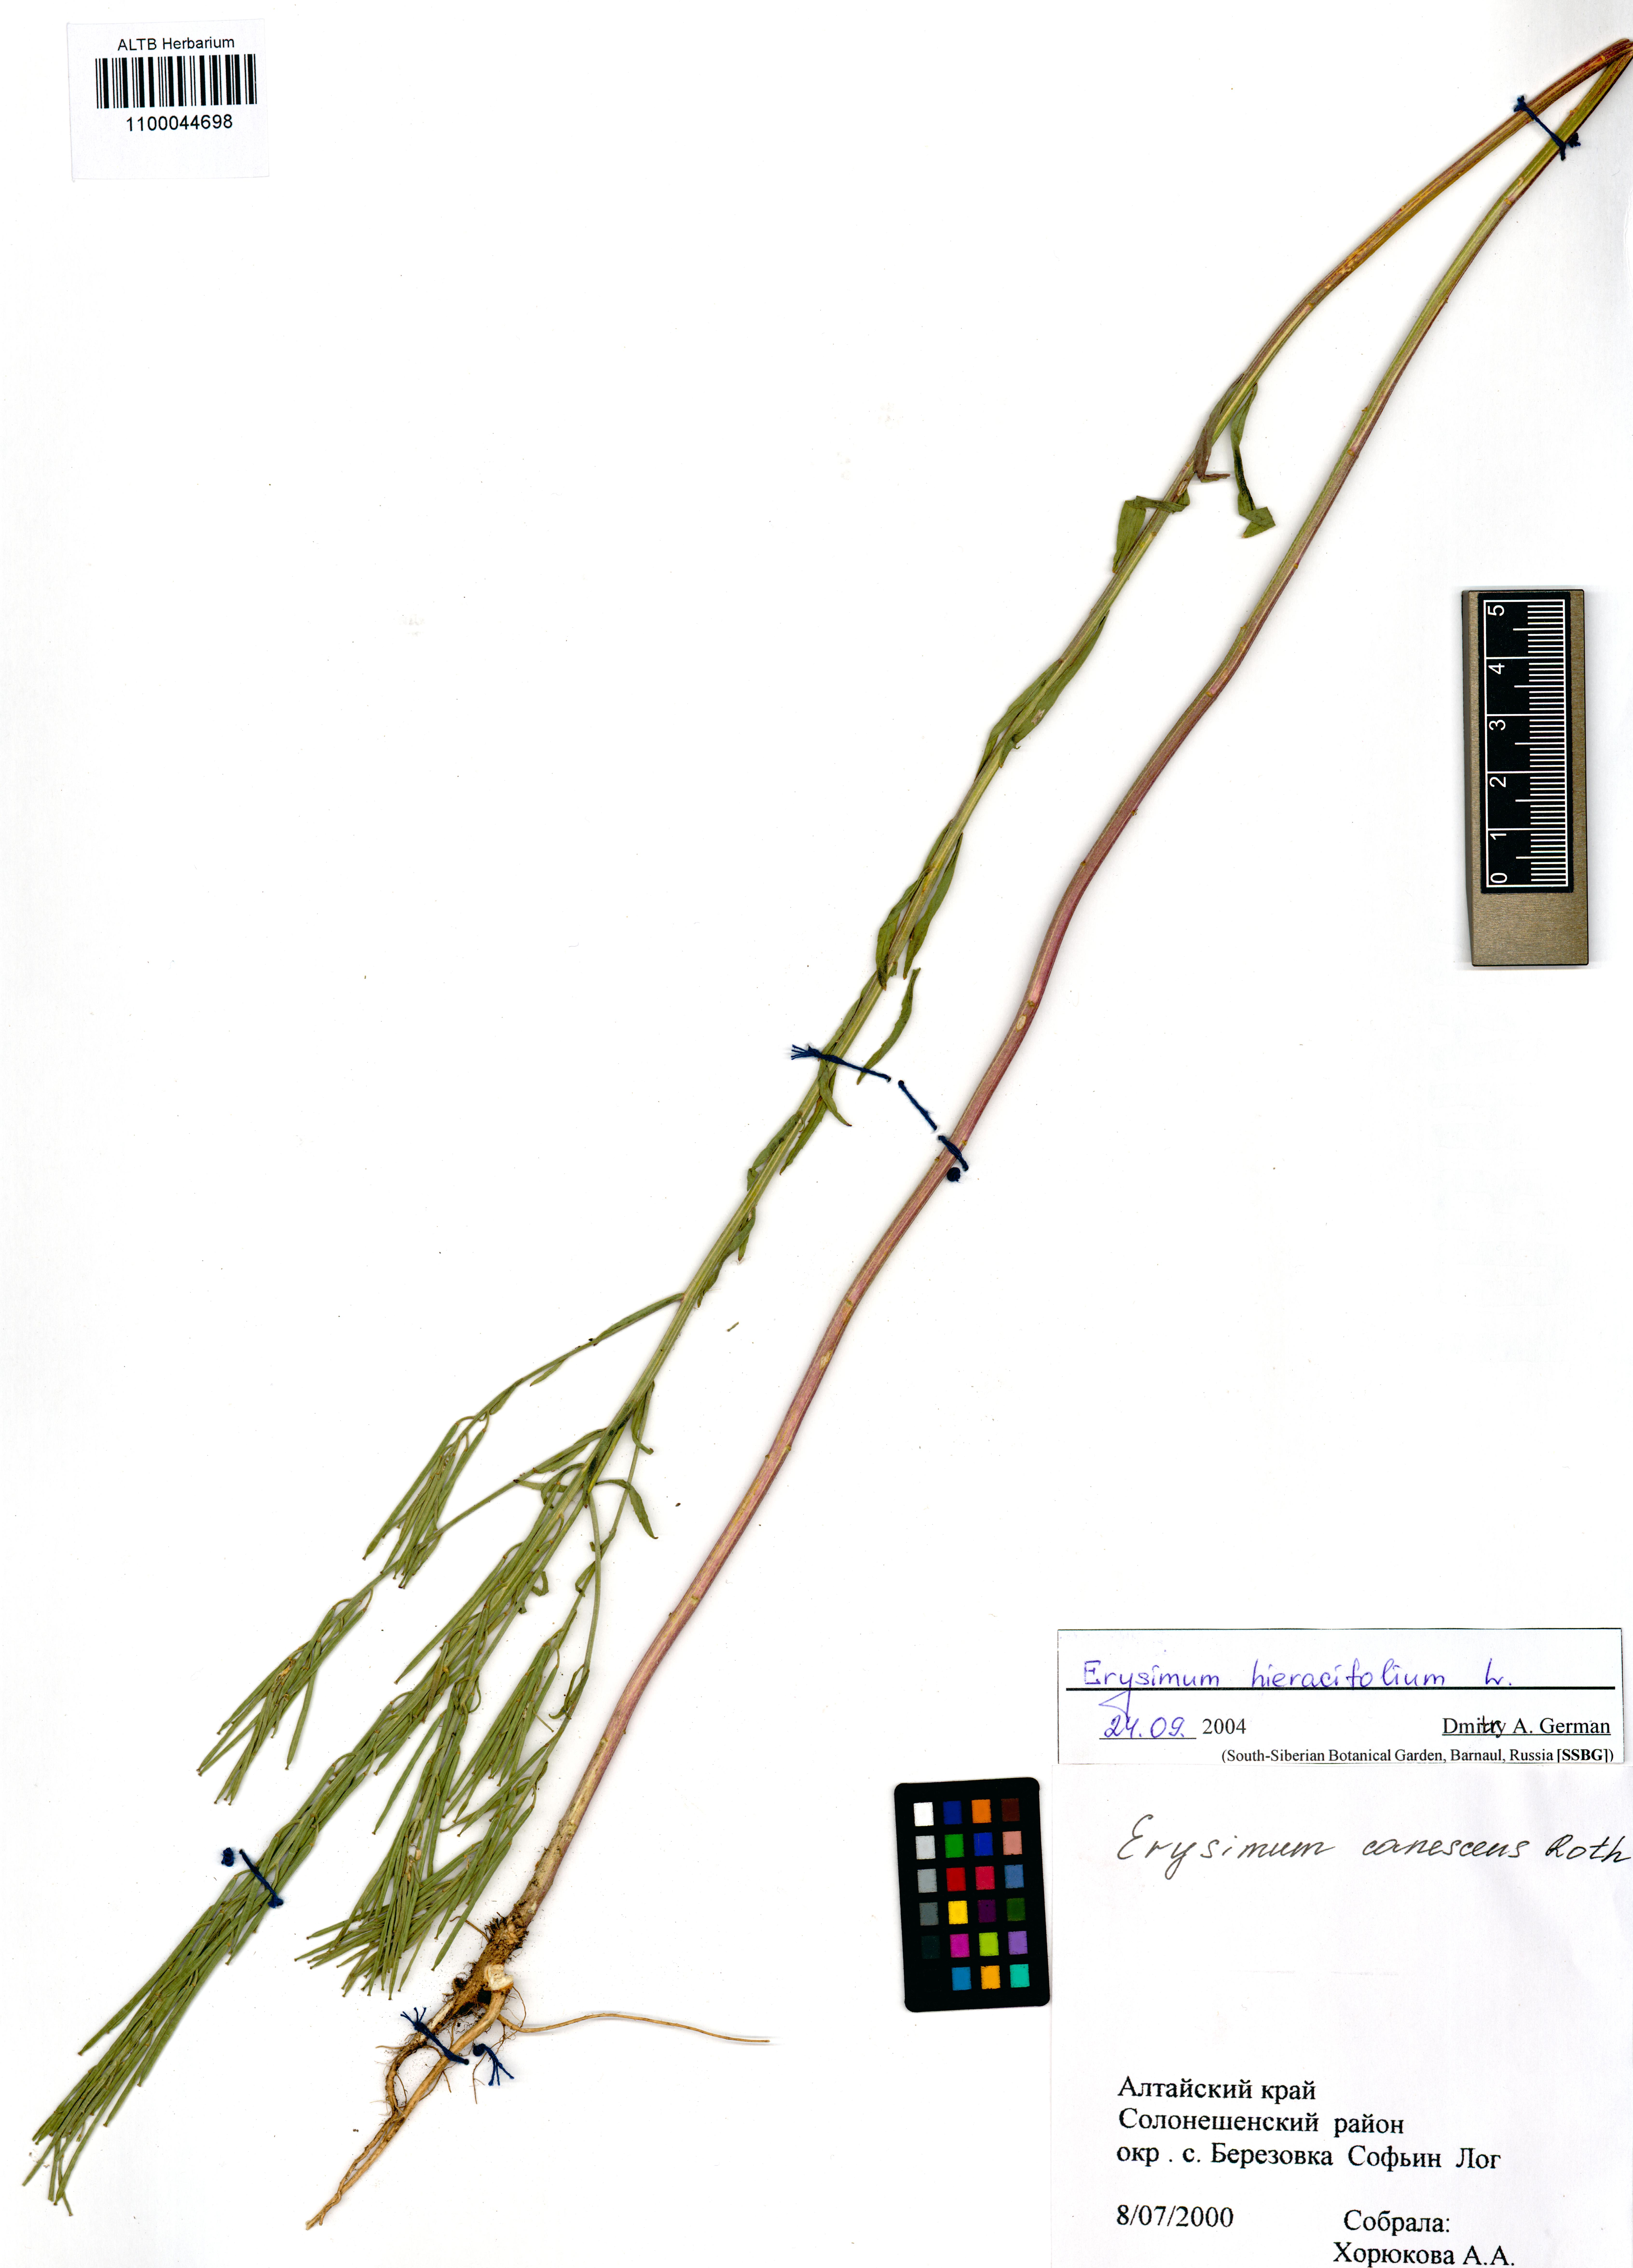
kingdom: Plantae
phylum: Tracheophyta
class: Magnoliopsida
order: Brassicales
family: Brassicaceae
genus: Erysimum
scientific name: Erysimum hieraciifolium
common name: European wallflower
